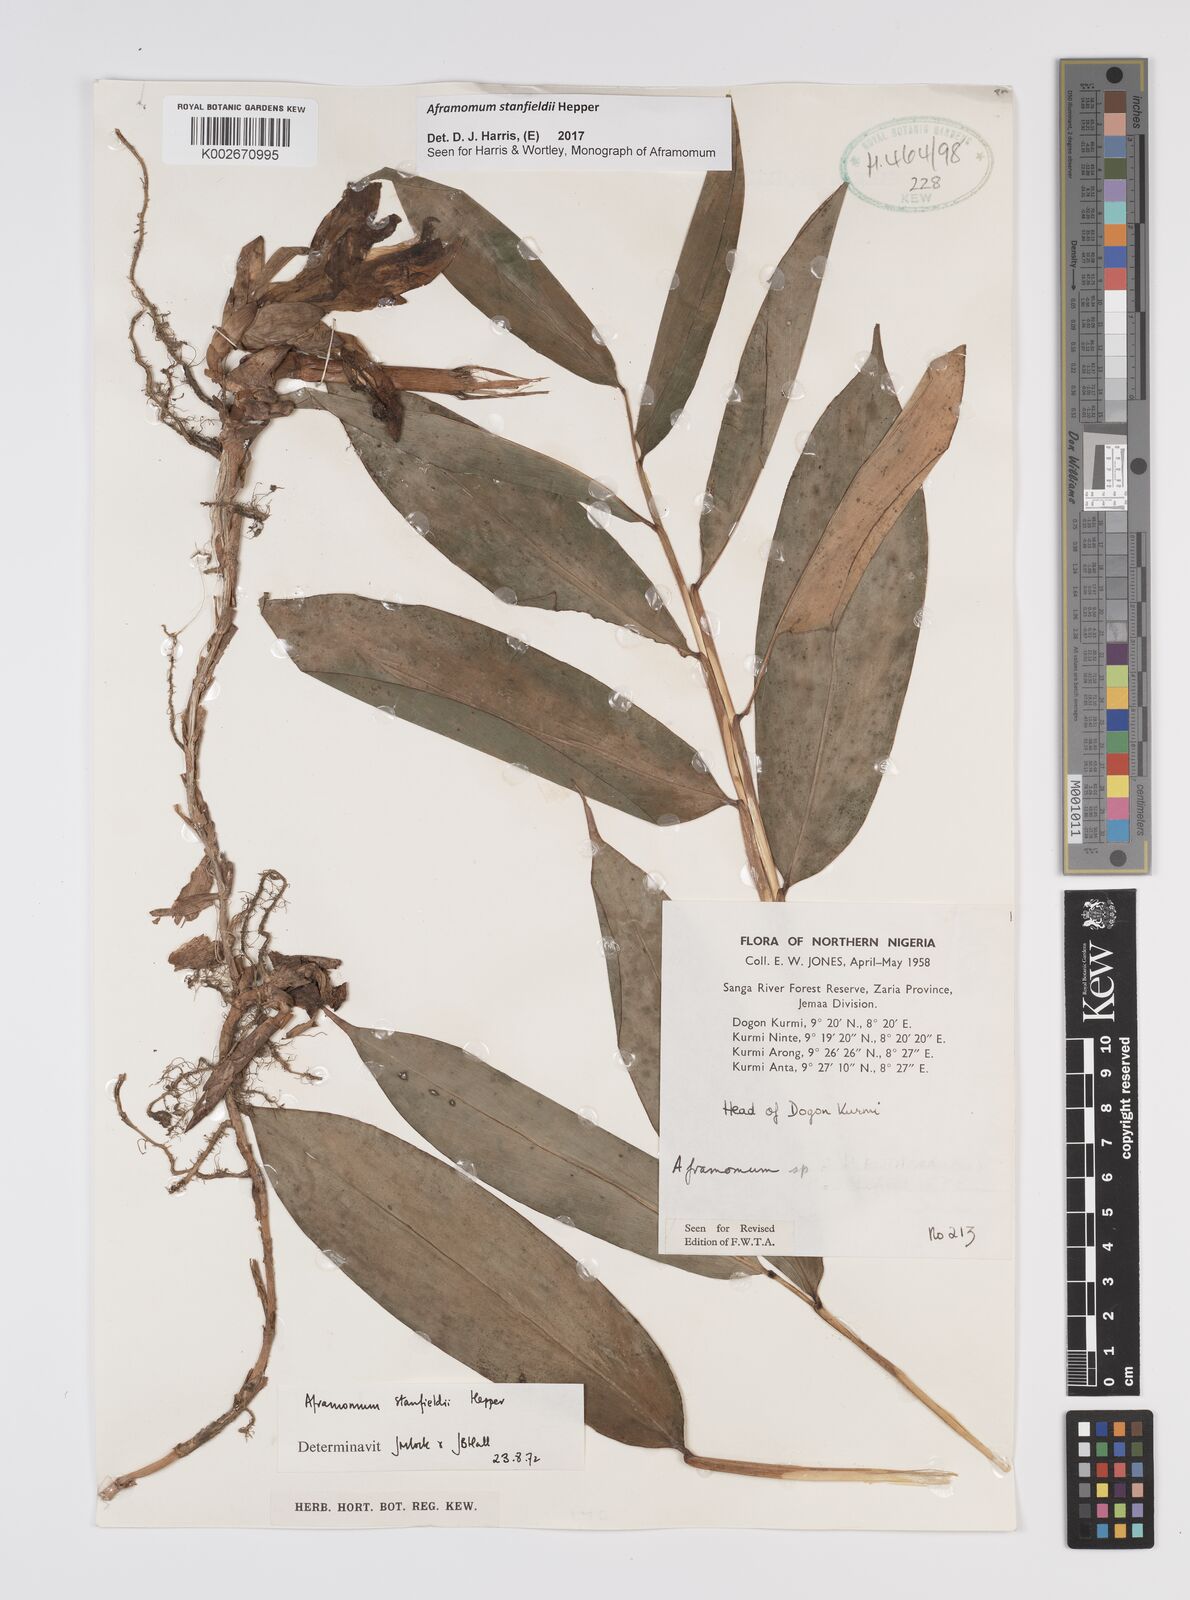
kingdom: Plantae
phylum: Tracheophyta
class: Liliopsida
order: Zingiberales
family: Zingiberaceae
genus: Aframomum
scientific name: Aframomum stanfieldii
